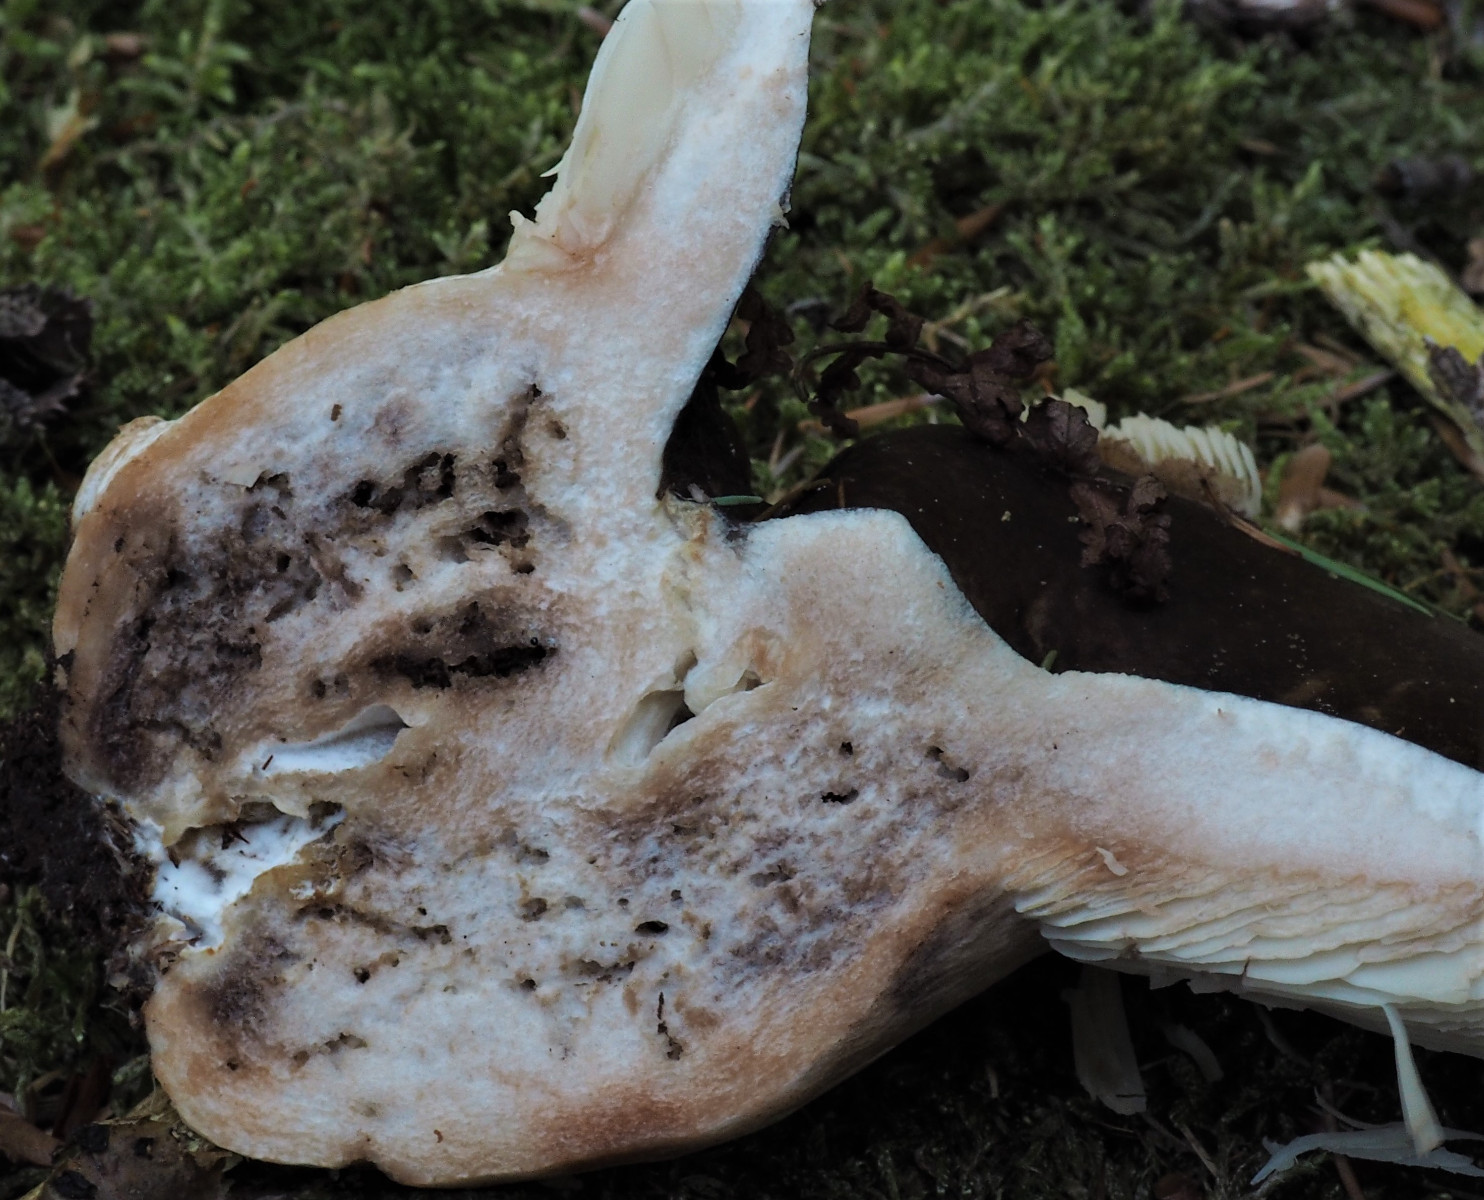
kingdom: Fungi
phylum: Basidiomycota
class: Agaricomycetes
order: Russulales
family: Russulaceae
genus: Russula
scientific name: Russula
